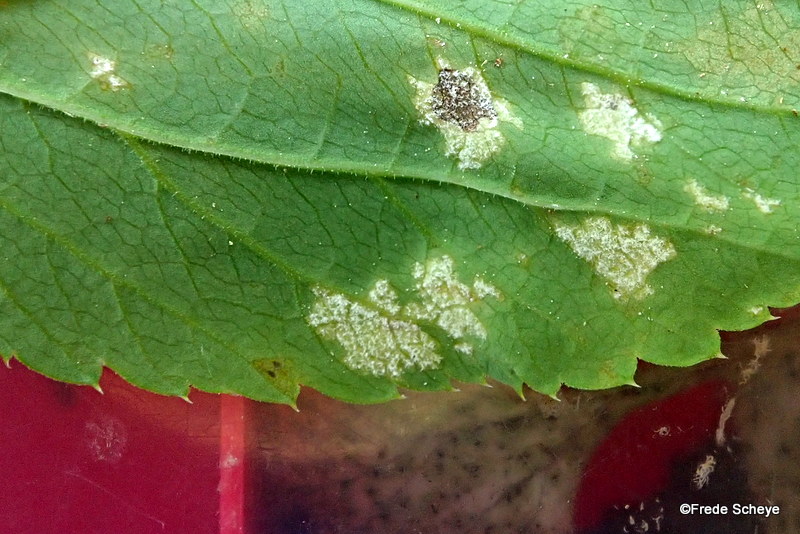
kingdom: Chromista
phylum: Oomycota
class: Peronosporea
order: Peronosporales
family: Peronosporaceae
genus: Peronospora
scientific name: Peronospora crustosa
